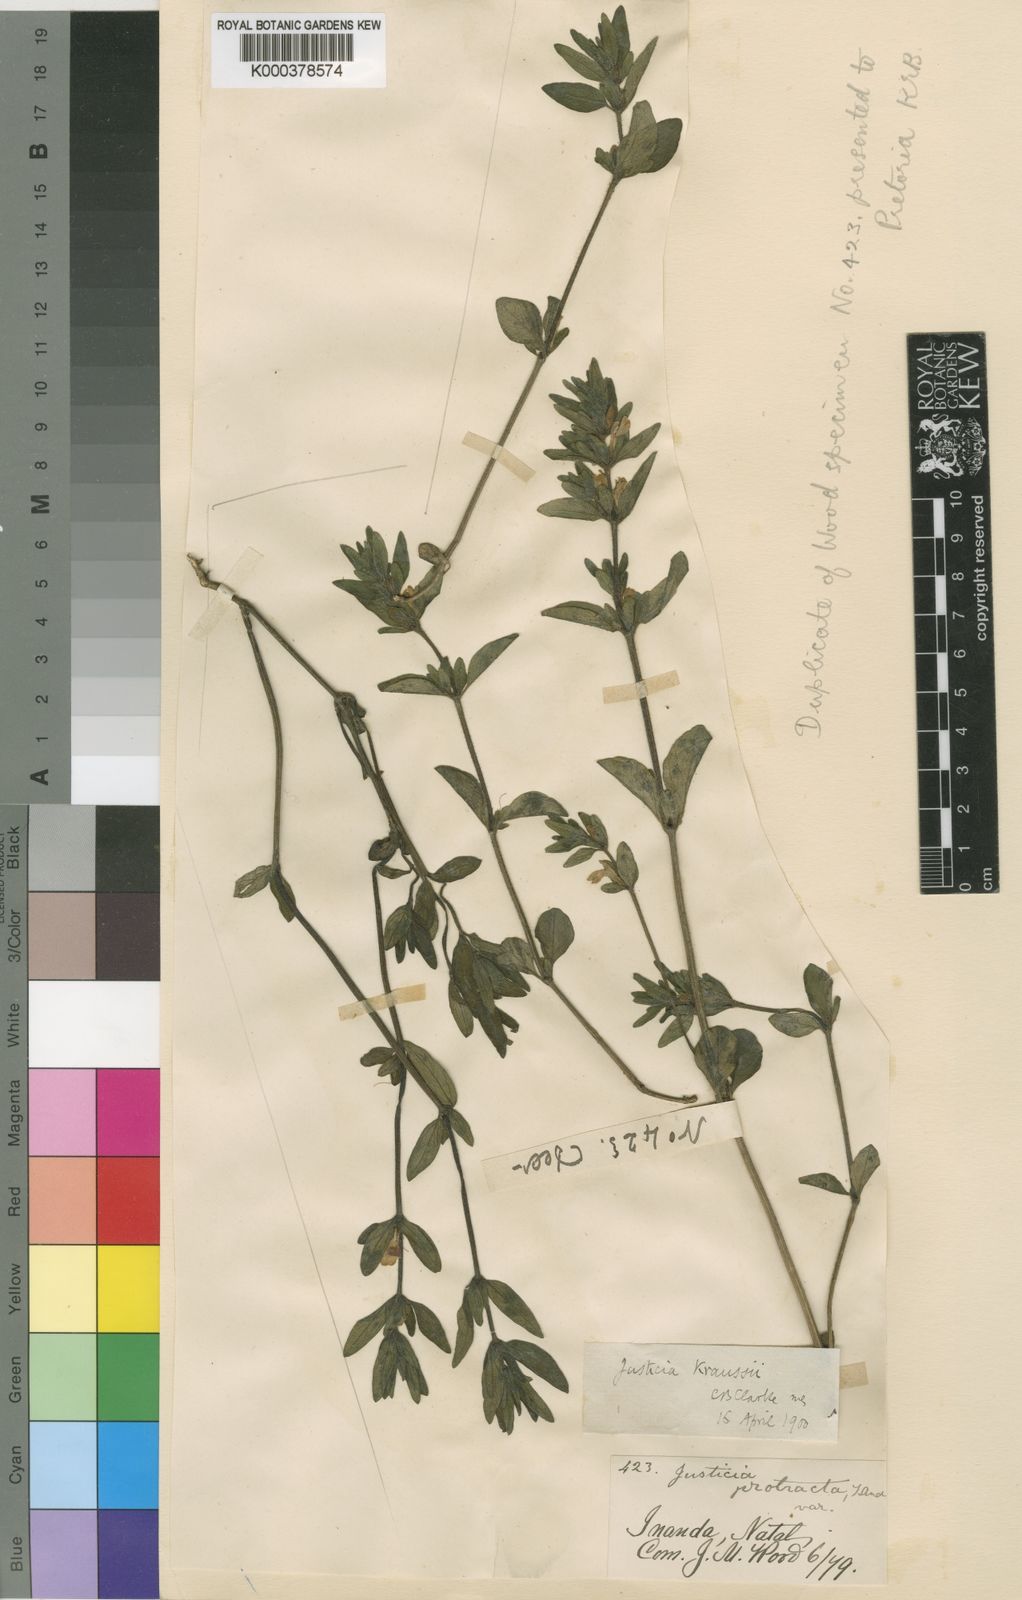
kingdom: Plantae
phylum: Tracheophyta
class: Magnoliopsida
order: Lamiales
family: Acanthaceae
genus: Justicia
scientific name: Justicia protracta
